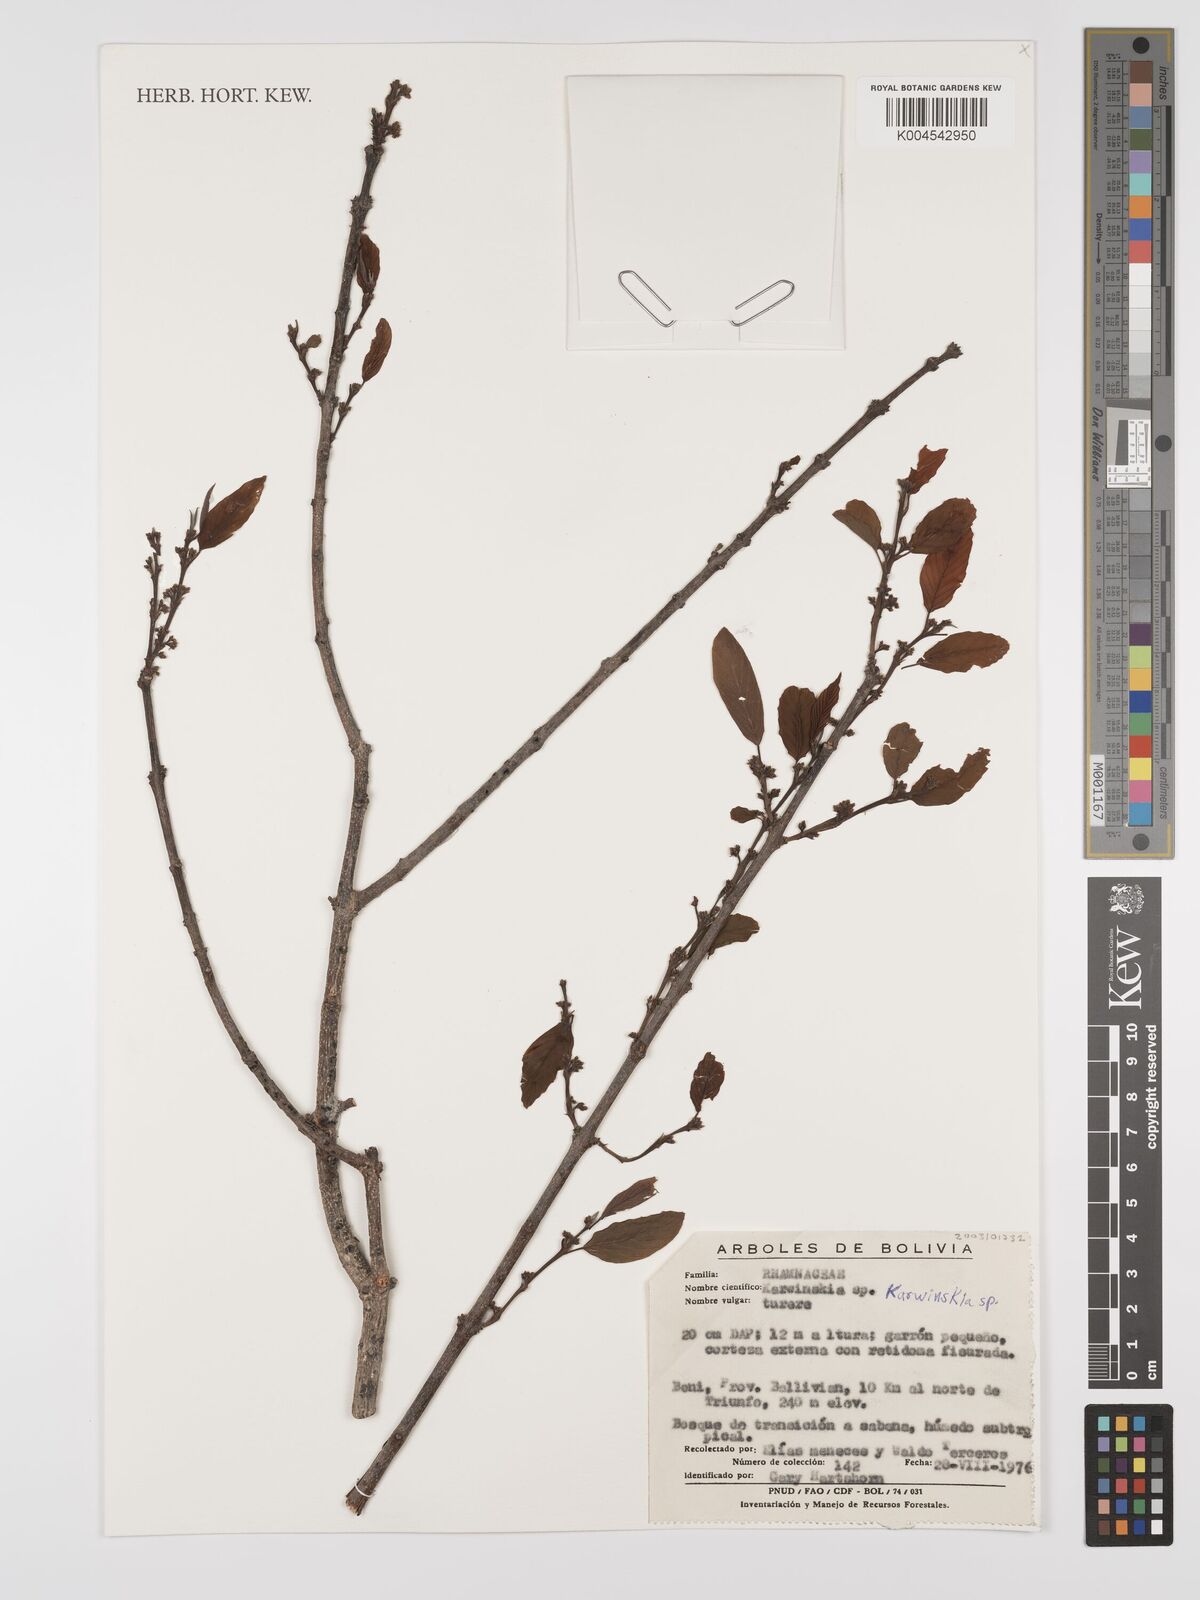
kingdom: Plantae
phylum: Tracheophyta
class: Magnoliopsida
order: Rosales
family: Rhamnaceae
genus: Karwinskia
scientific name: Karwinskia
